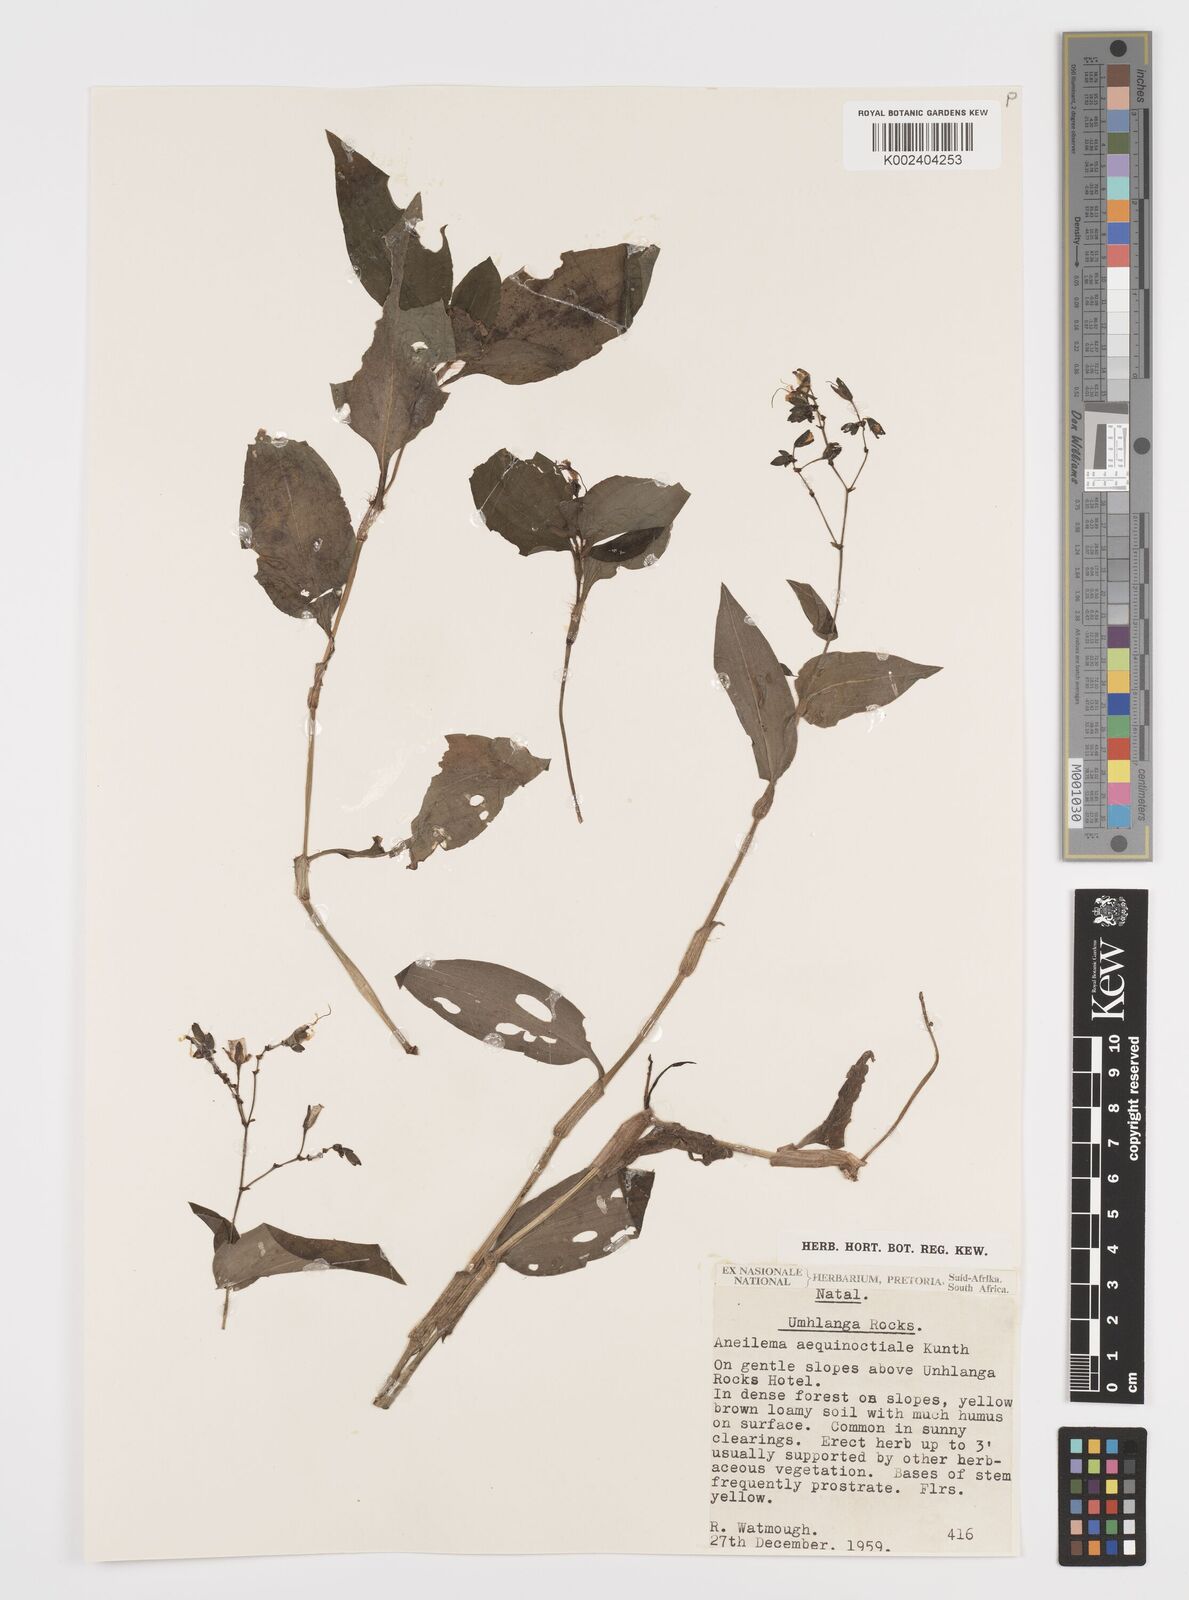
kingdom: Plantae
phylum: Tracheophyta
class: Liliopsida
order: Commelinales
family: Commelinaceae
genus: Aneilema
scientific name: Aneilema aequinoctiale
